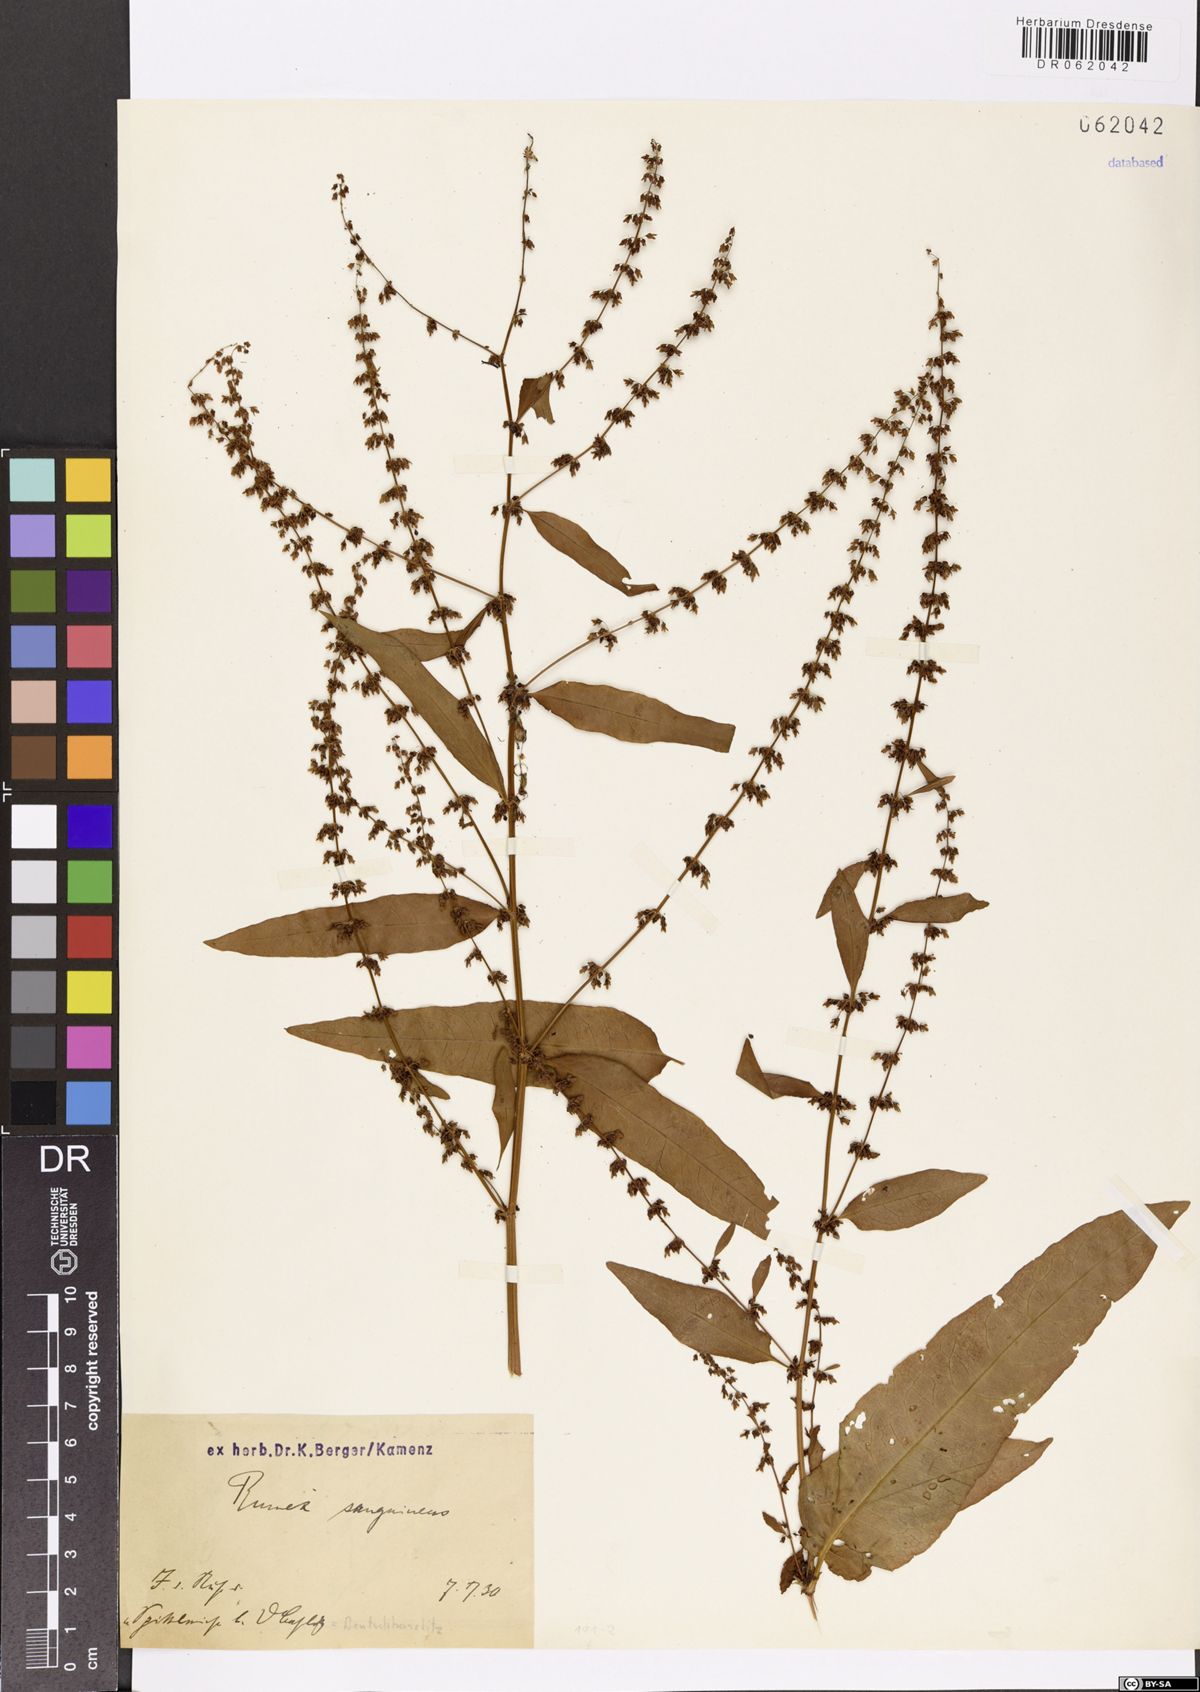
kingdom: Plantae
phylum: Tracheophyta
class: Magnoliopsida
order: Caryophyllales
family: Polygonaceae
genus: Rumex
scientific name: Rumex sanguineus
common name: Wood dock
